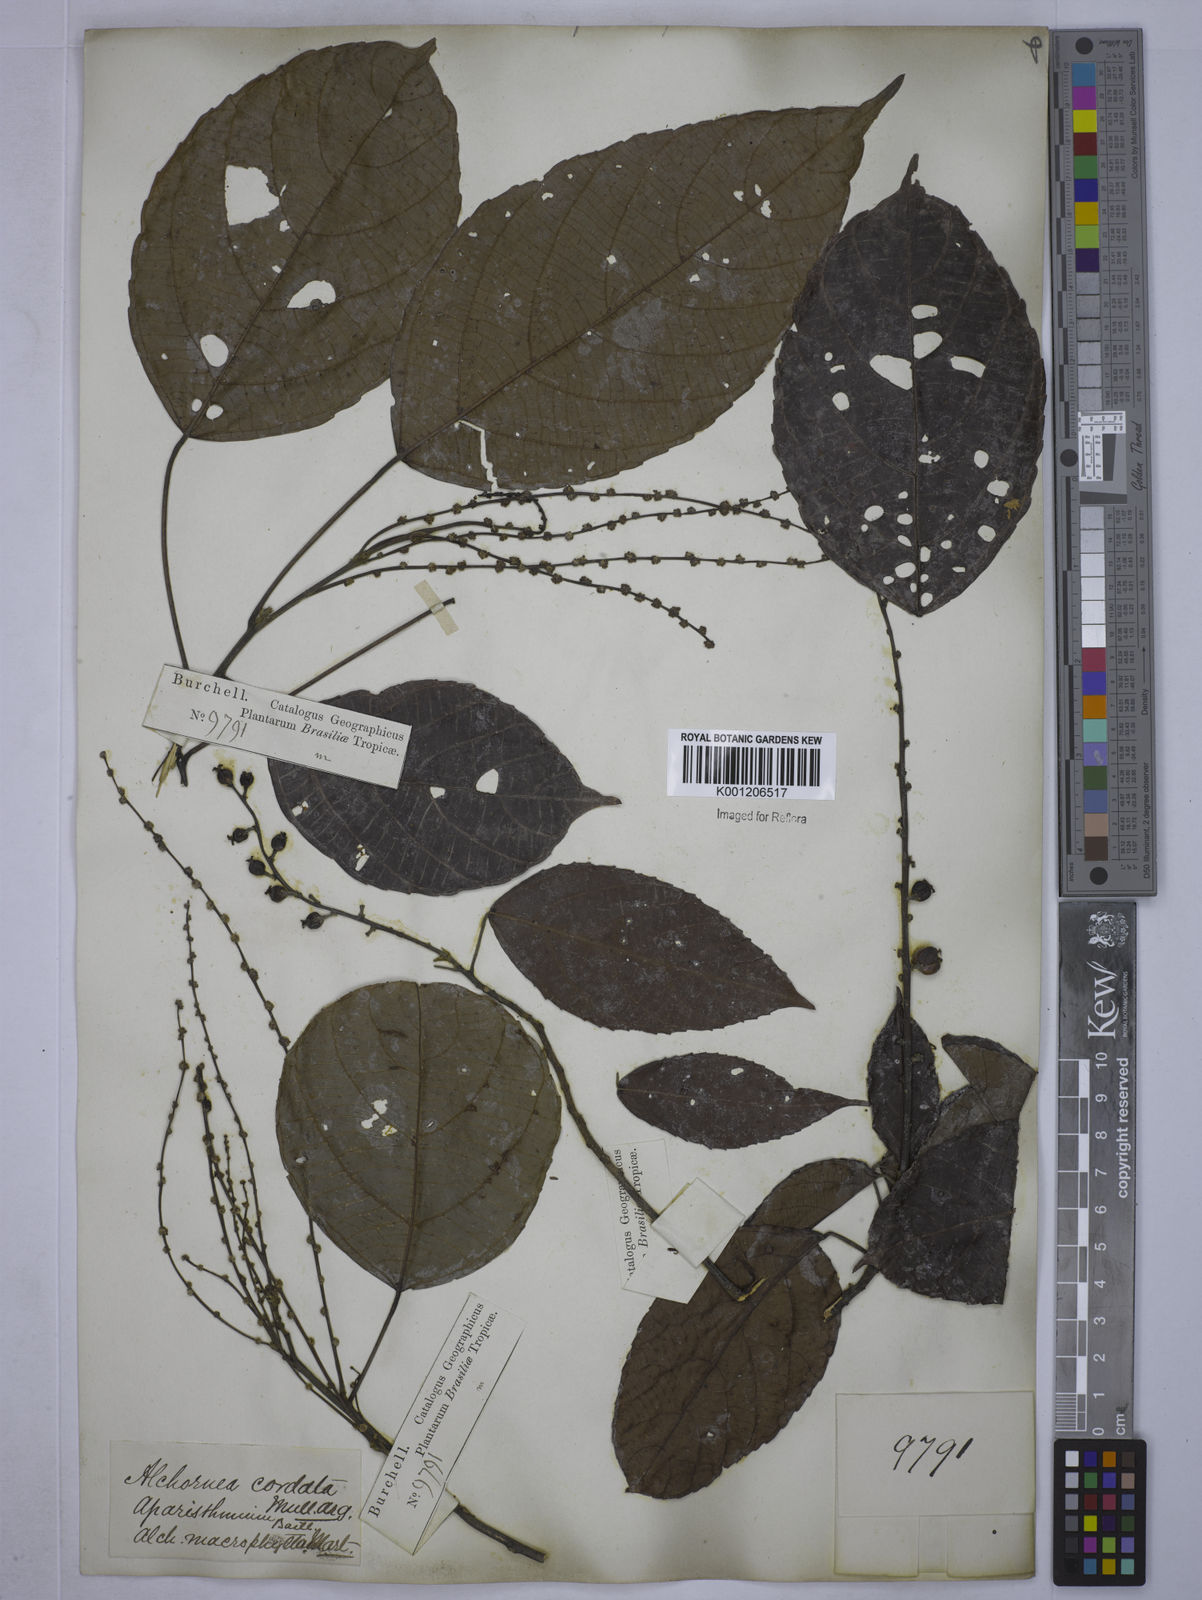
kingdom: Plantae
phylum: Tracheophyta
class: Magnoliopsida
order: Malpighiales
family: Euphorbiaceae
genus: Aparisthmium
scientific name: Aparisthmium cordatum
